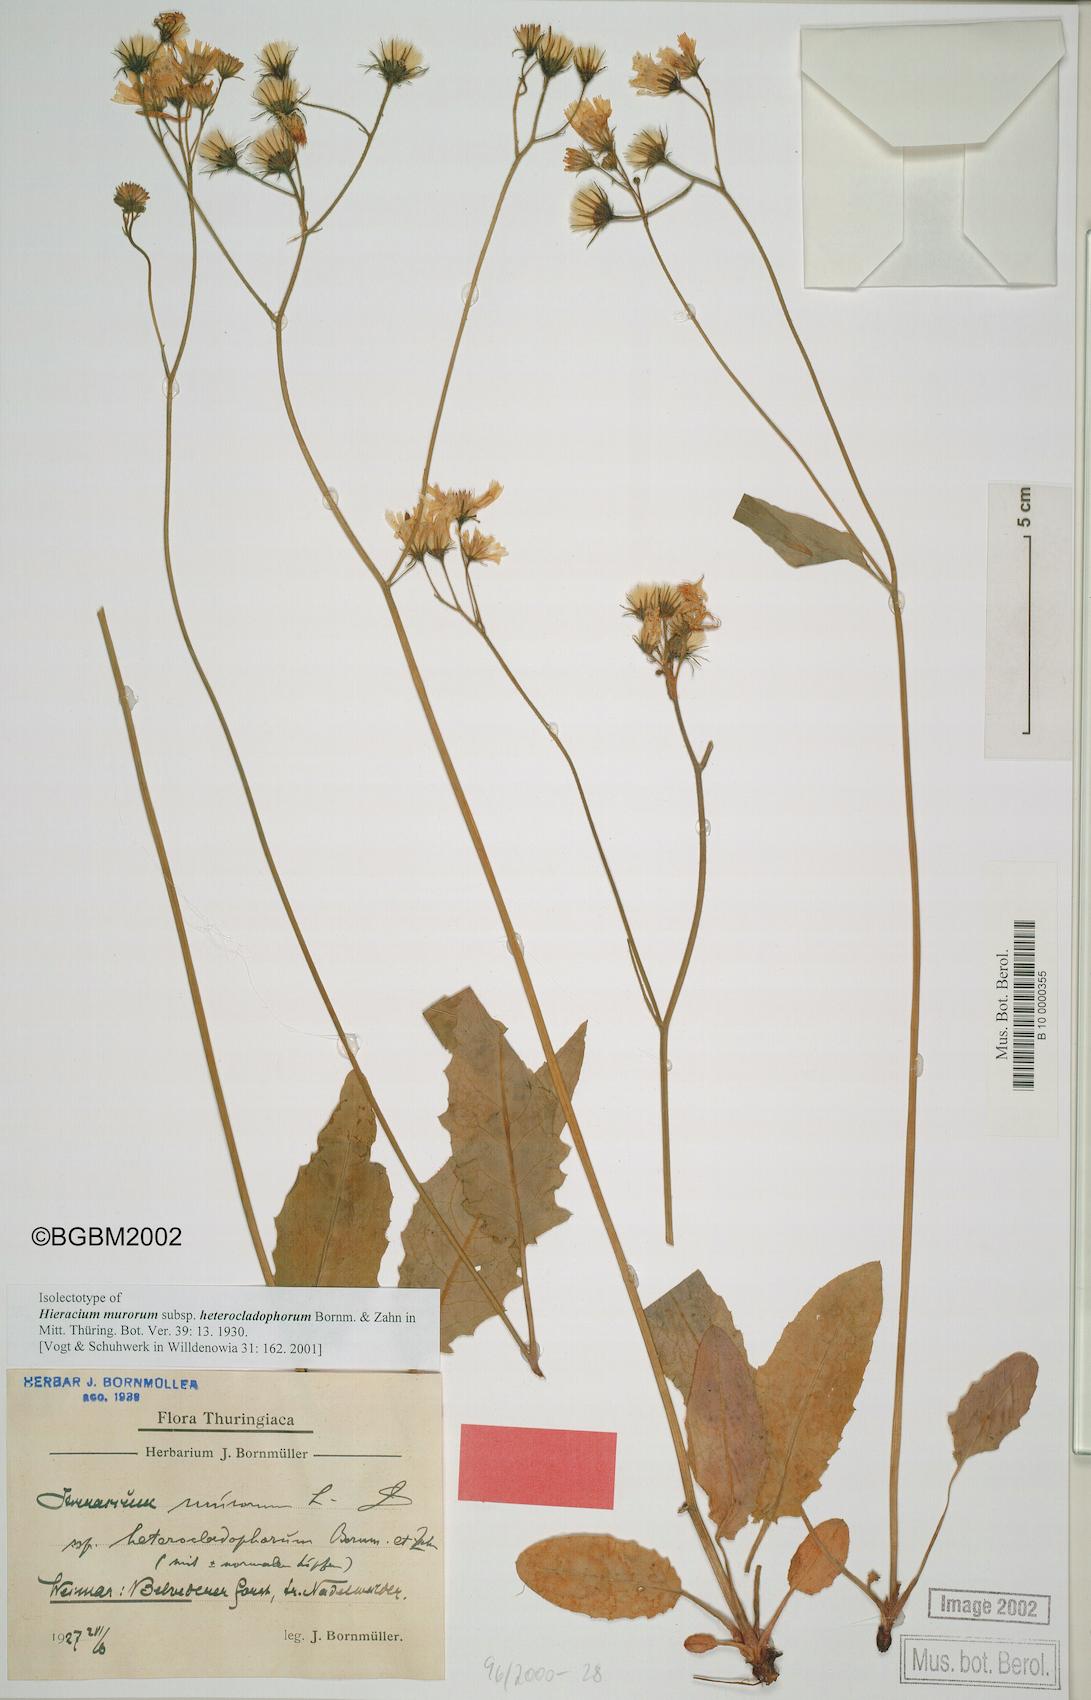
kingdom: Plantae
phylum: Tracheophyta
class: Magnoliopsida
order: Asterales
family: Asteraceae
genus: Hieracium
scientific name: Hieracium murorum
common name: Wall hawkweed
